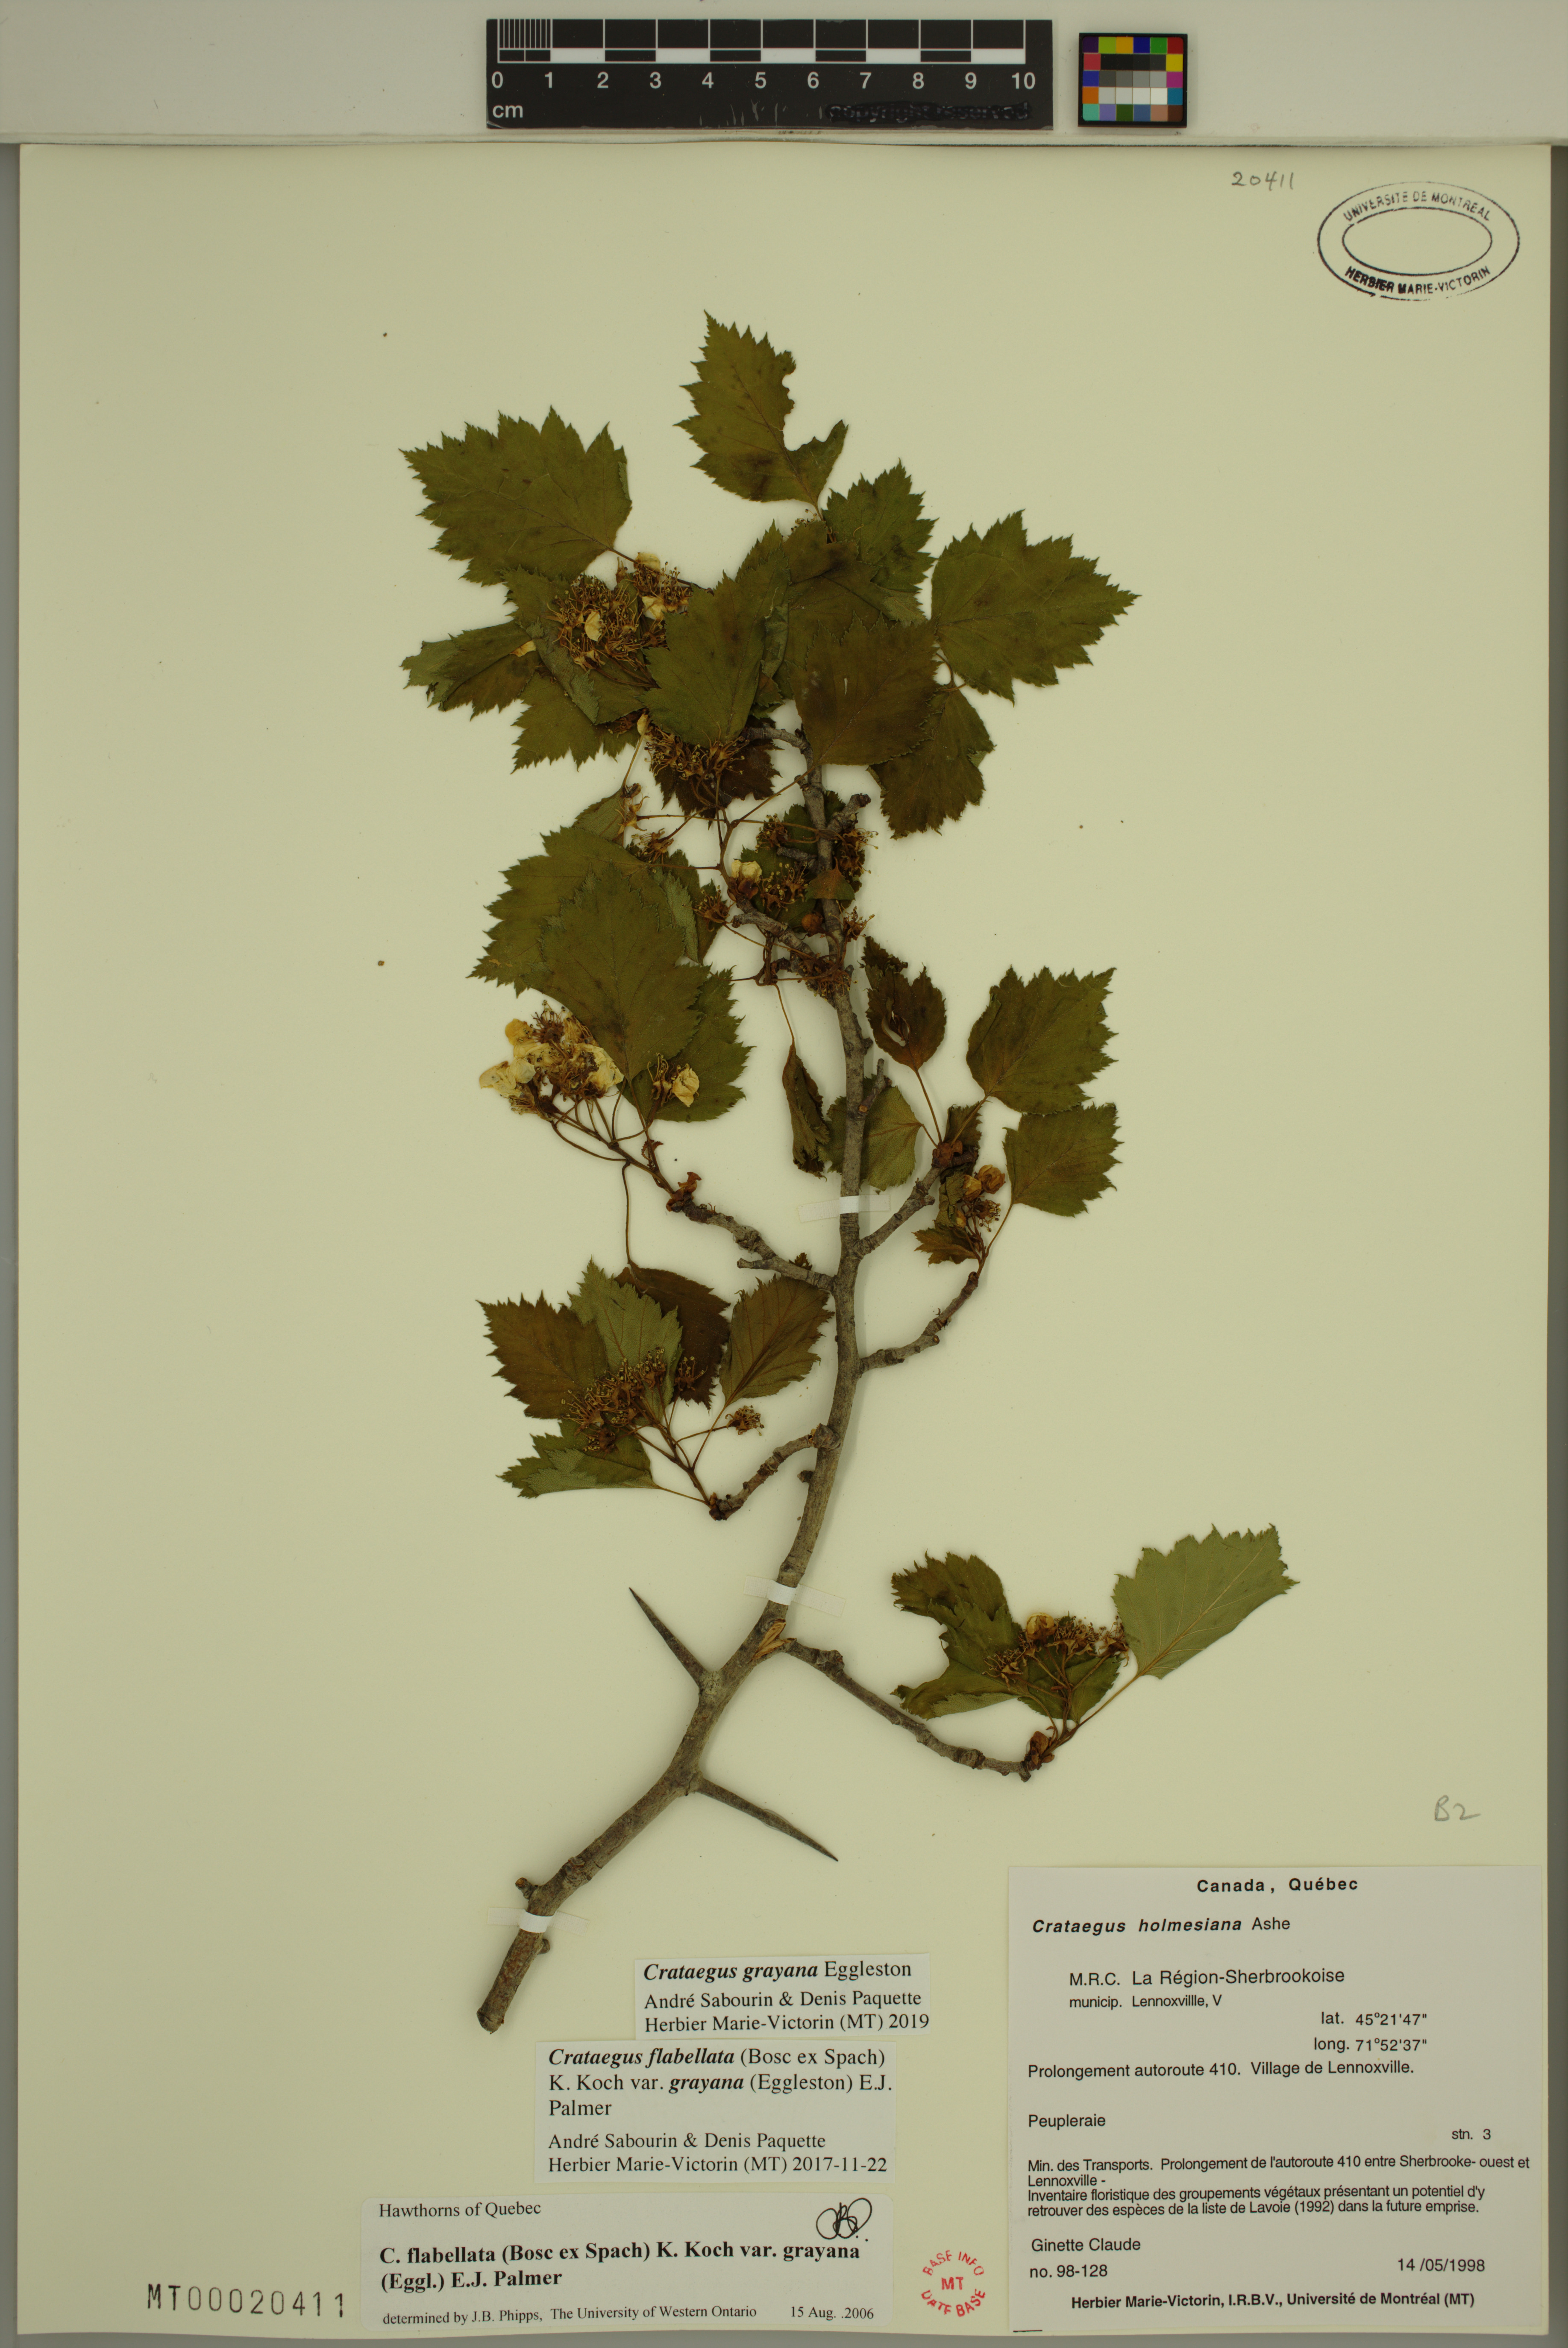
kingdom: Plantae
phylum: Tracheophyta
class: Magnoliopsida
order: Rosales
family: Rosaceae
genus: Crataegus
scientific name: Crataegus schuettei
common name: Schuette's hawthorn
